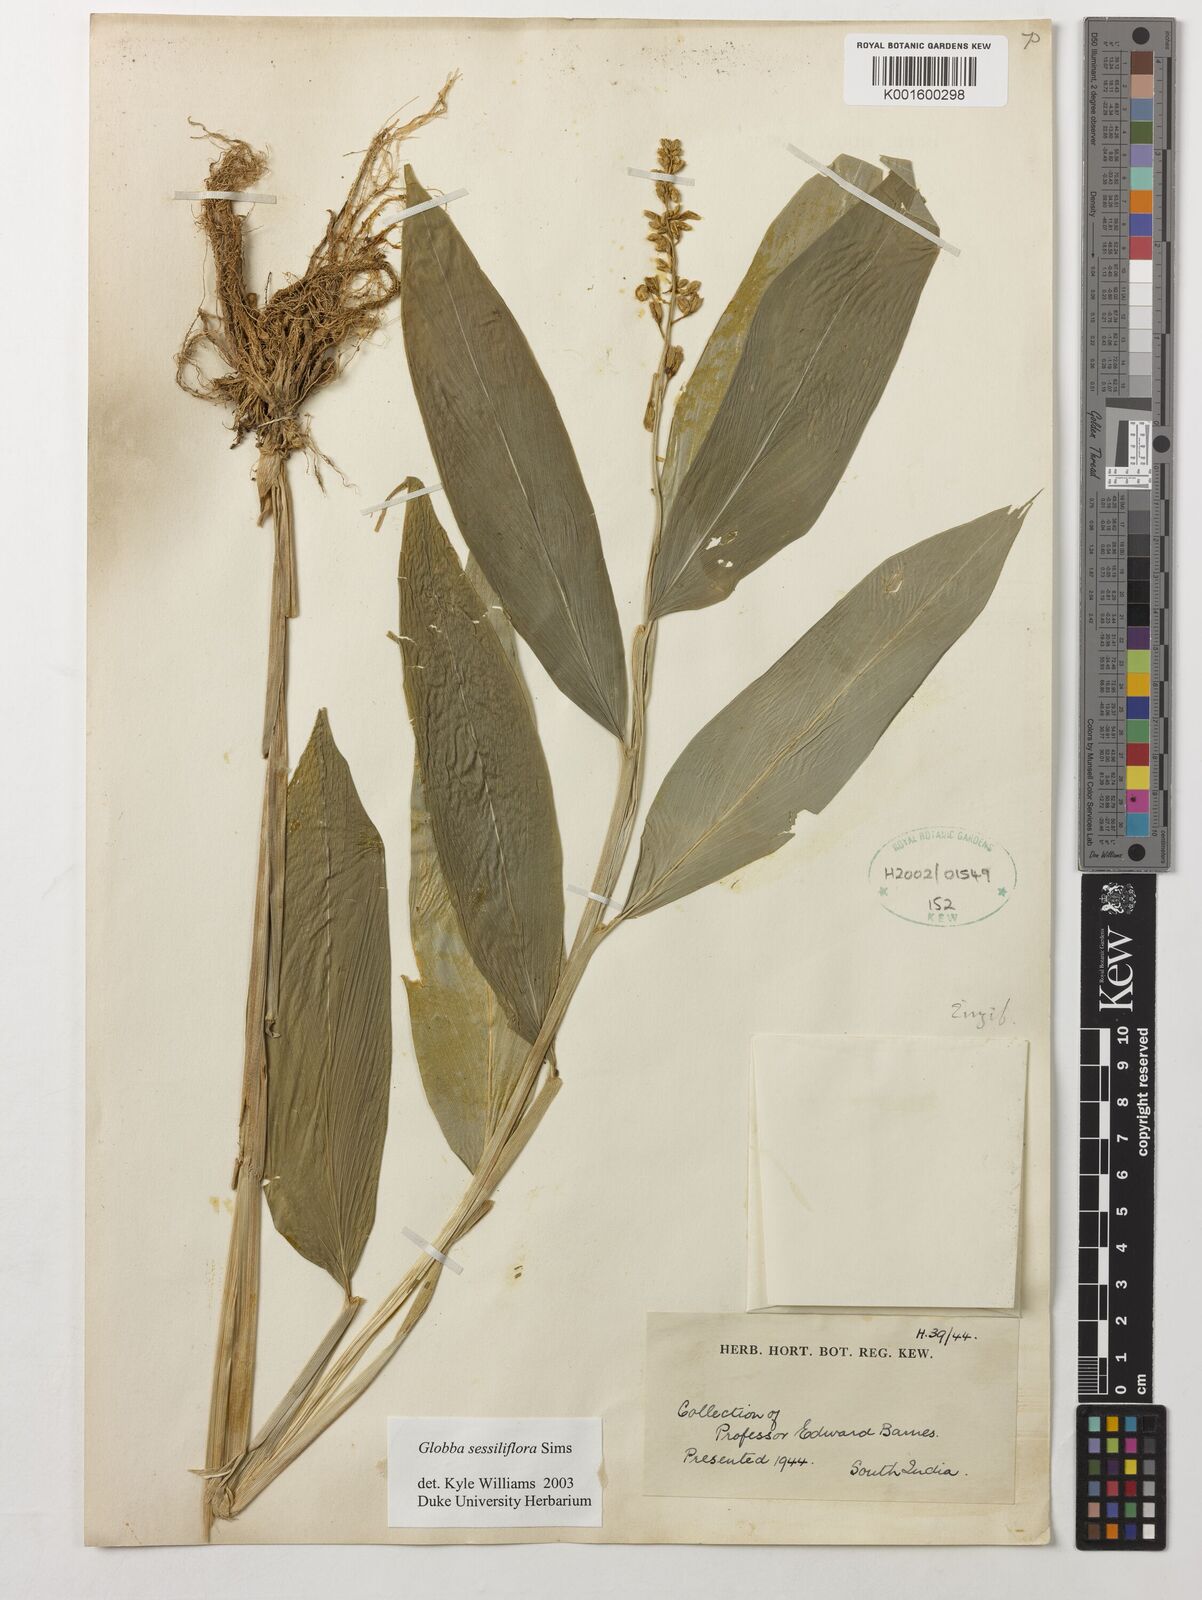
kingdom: Plantae
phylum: Tracheophyta
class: Liliopsida
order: Zingiberales
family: Zingiberaceae
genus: Globba
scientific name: Globba sessiliflora
